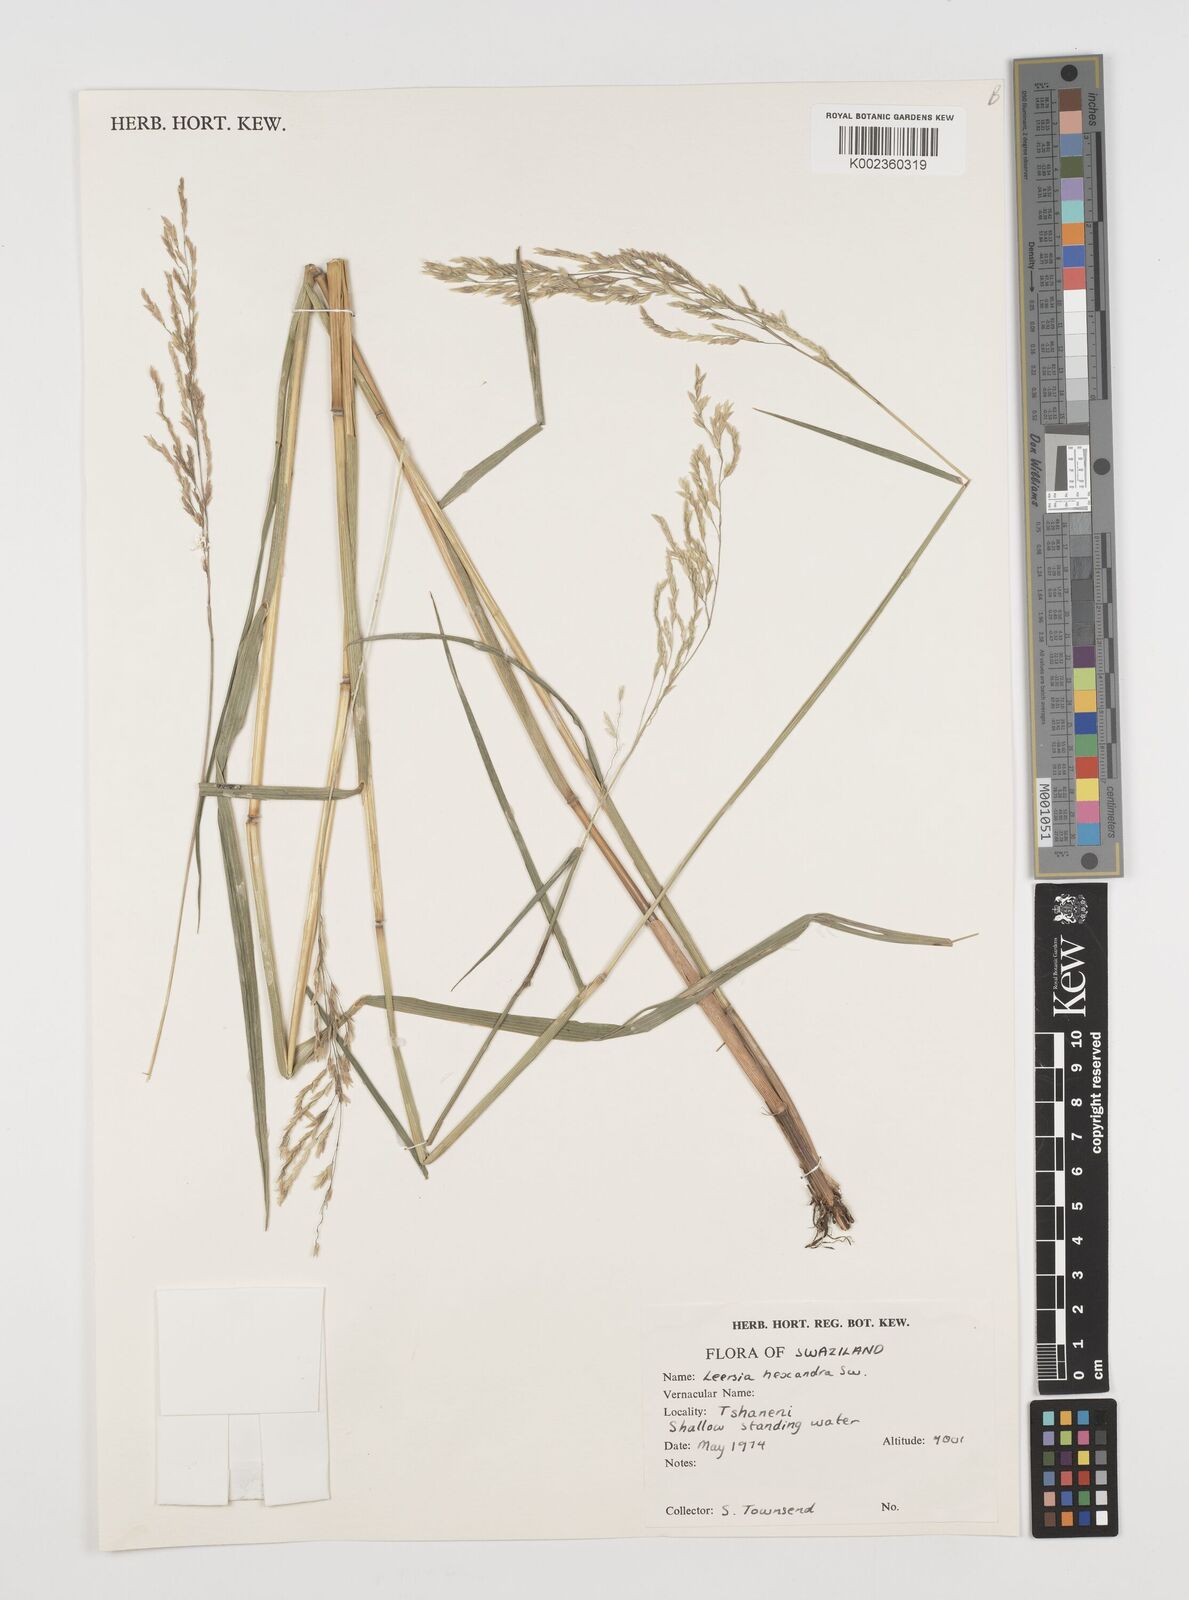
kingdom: Plantae
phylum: Tracheophyta
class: Liliopsida
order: Poales
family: Poaceae
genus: Leersia
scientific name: Leersia hexandra
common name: Southern cut grass
